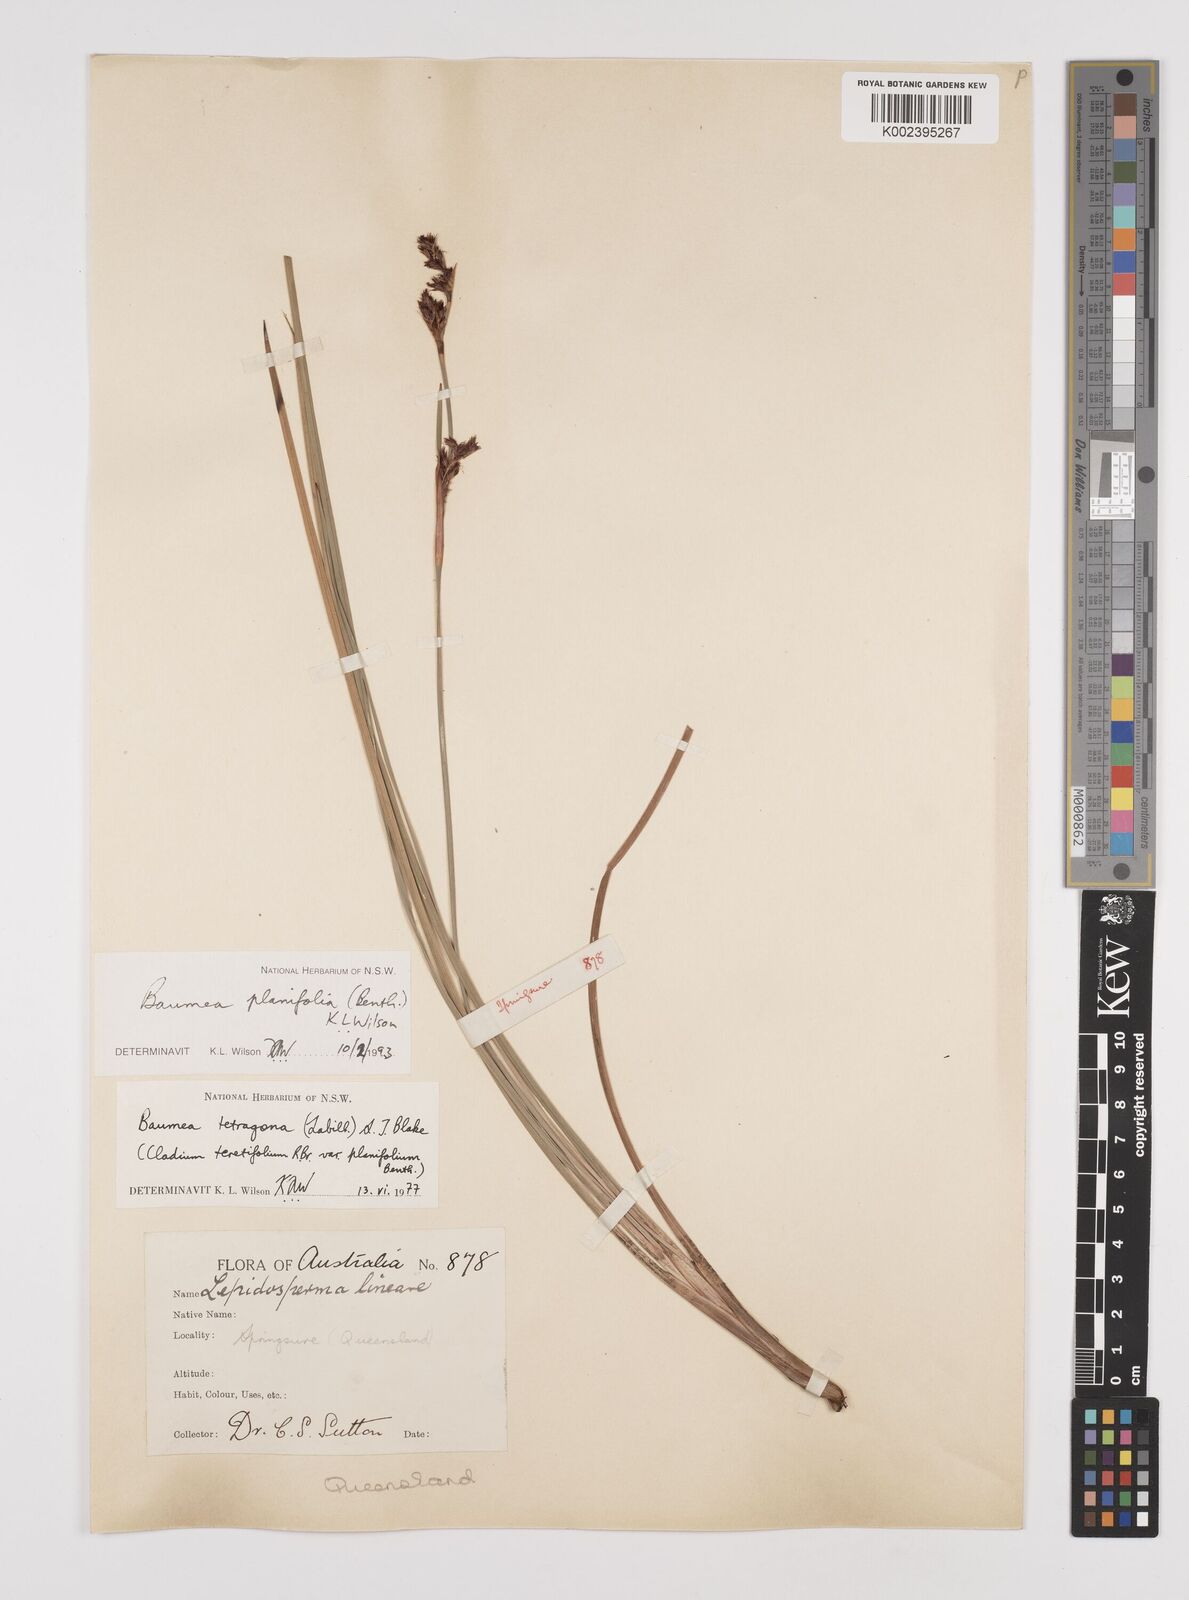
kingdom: Plantae
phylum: Tracheophyta
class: Liliopsida
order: Poales
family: Cyperaceae
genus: Machaerina
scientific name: Machaerina teretifolia
